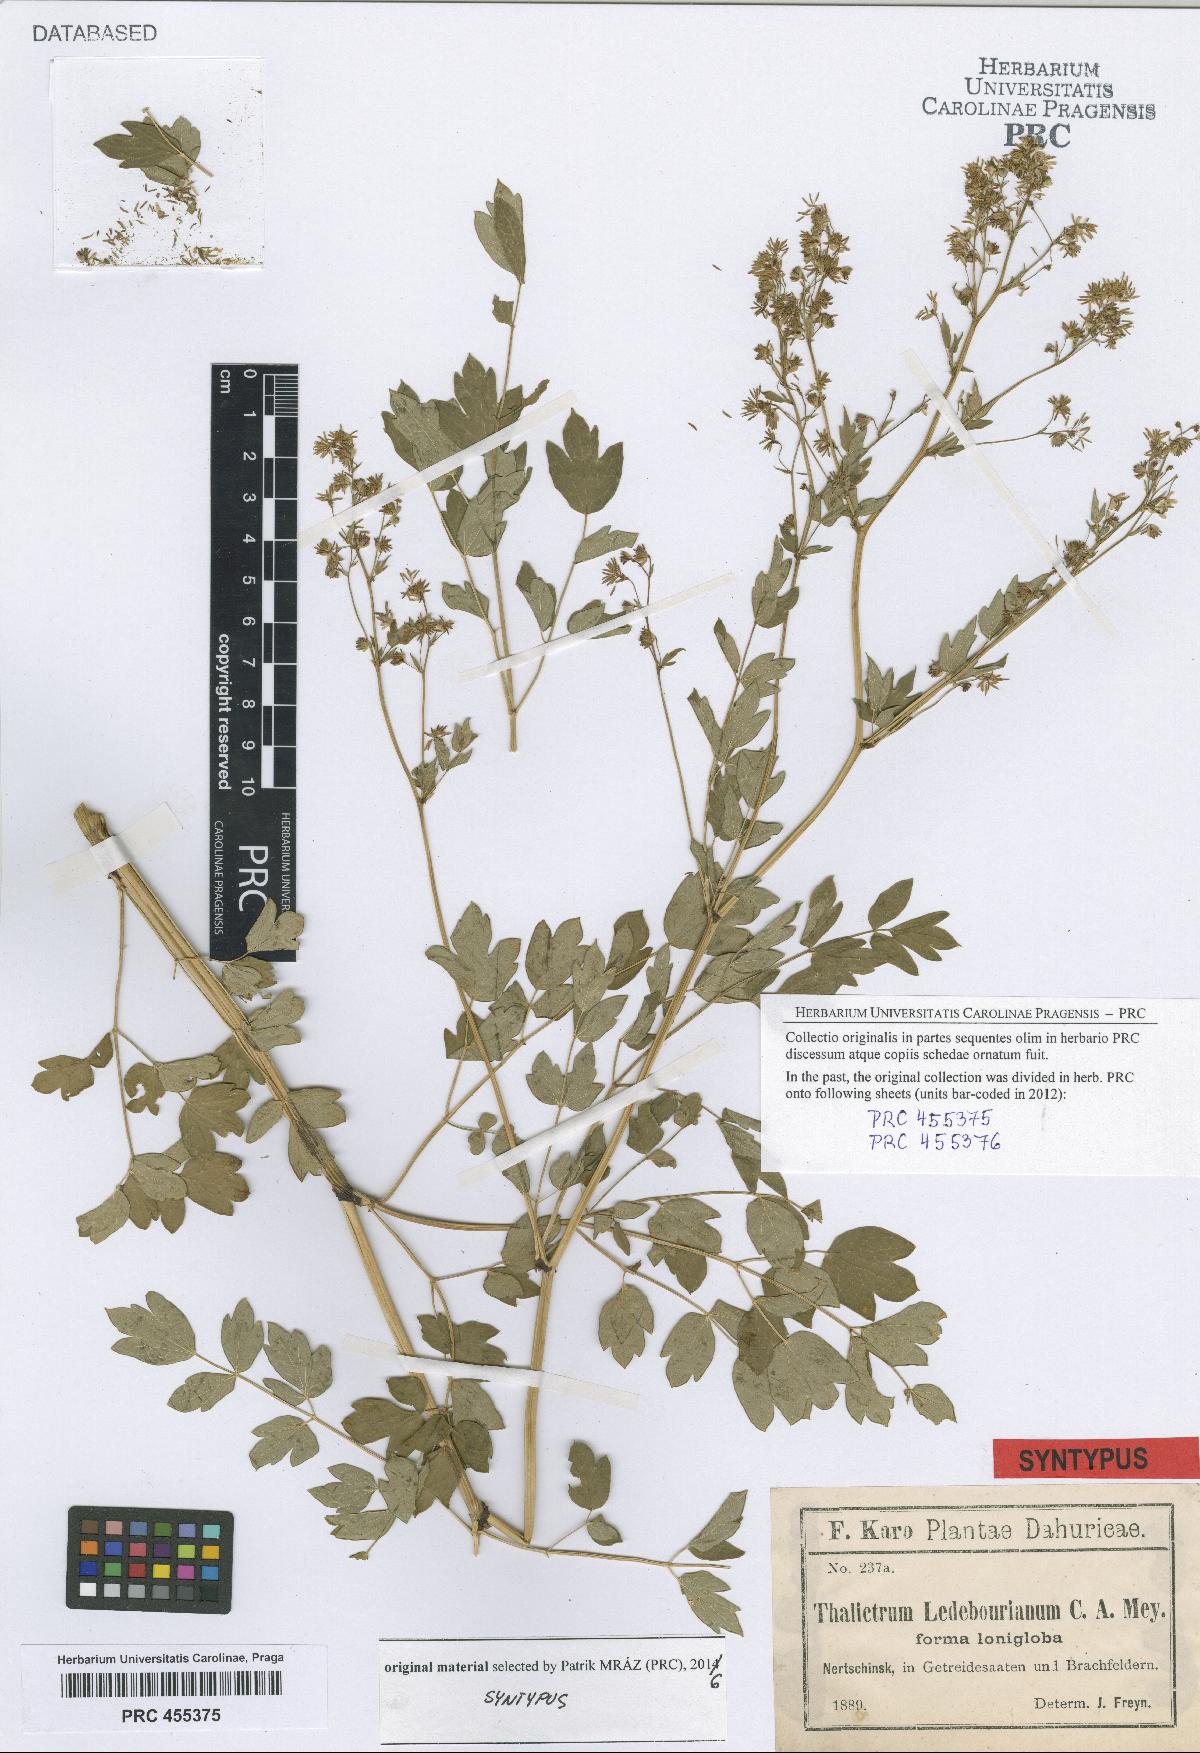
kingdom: Plantae
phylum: Tracheophyta
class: Magnoliopsida
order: Ranunculales
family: Ranunculaceae
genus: Thalictrum
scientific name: Thalictrum squarrosum
